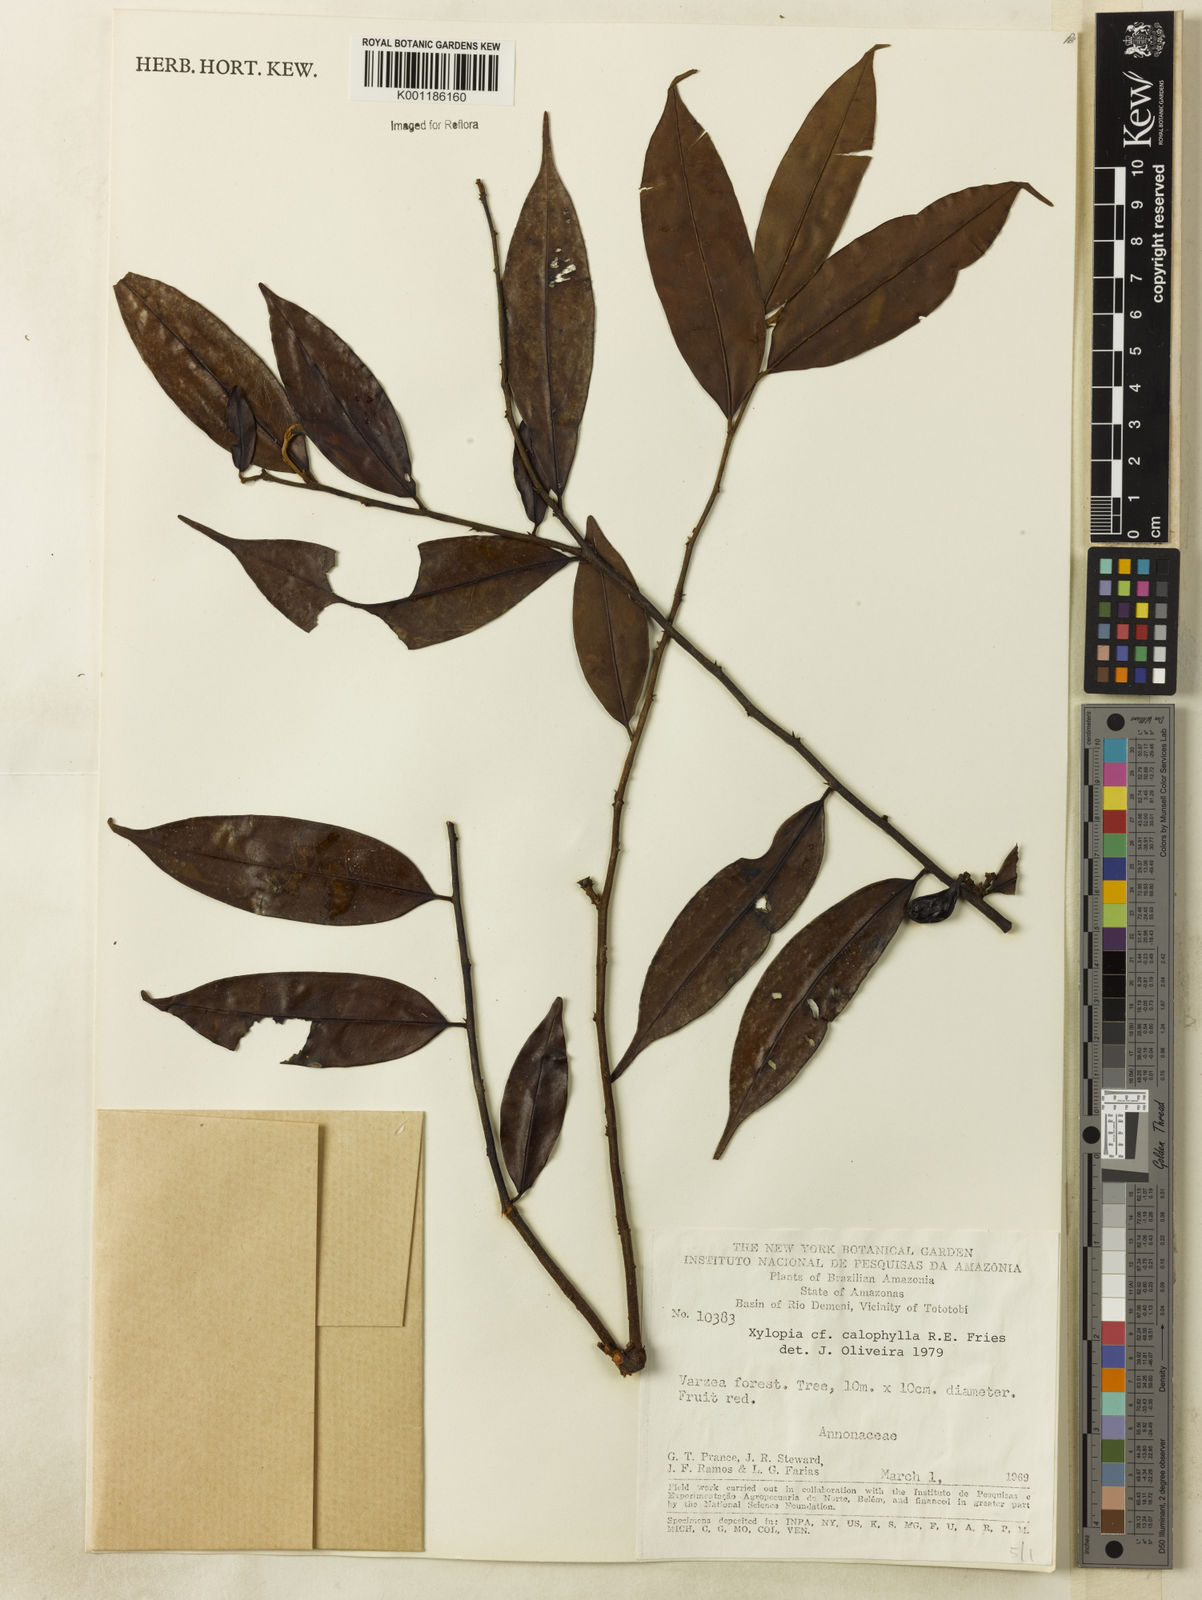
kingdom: Plantae
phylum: Tracheophyta
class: Magnoliopsida
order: Magnoliales
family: Annonaceae
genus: Xylopia
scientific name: Xylopia calophylla
